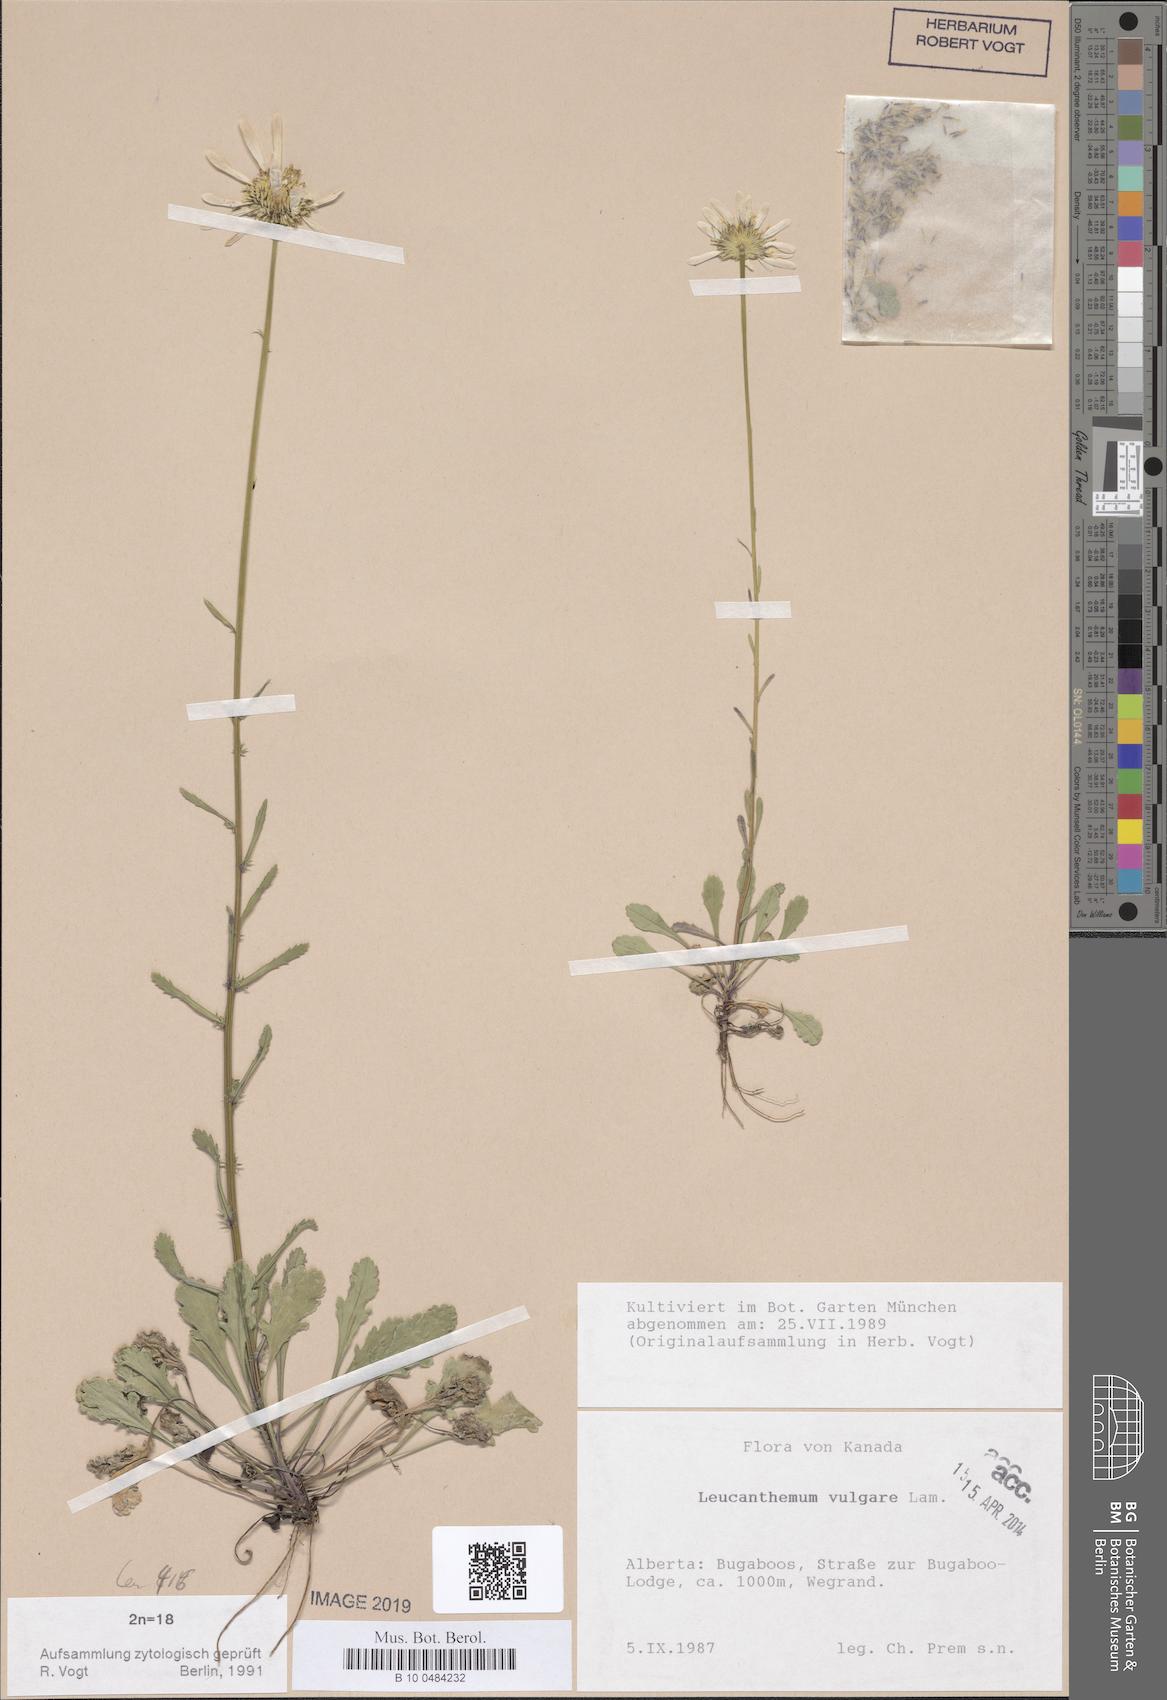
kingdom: Plantae
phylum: Tracheophyta
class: Magnoliopsida
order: Asterales
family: Asteraceae
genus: Leucanthemum
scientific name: Leucanthemum vulgare
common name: Oxeye daisy
